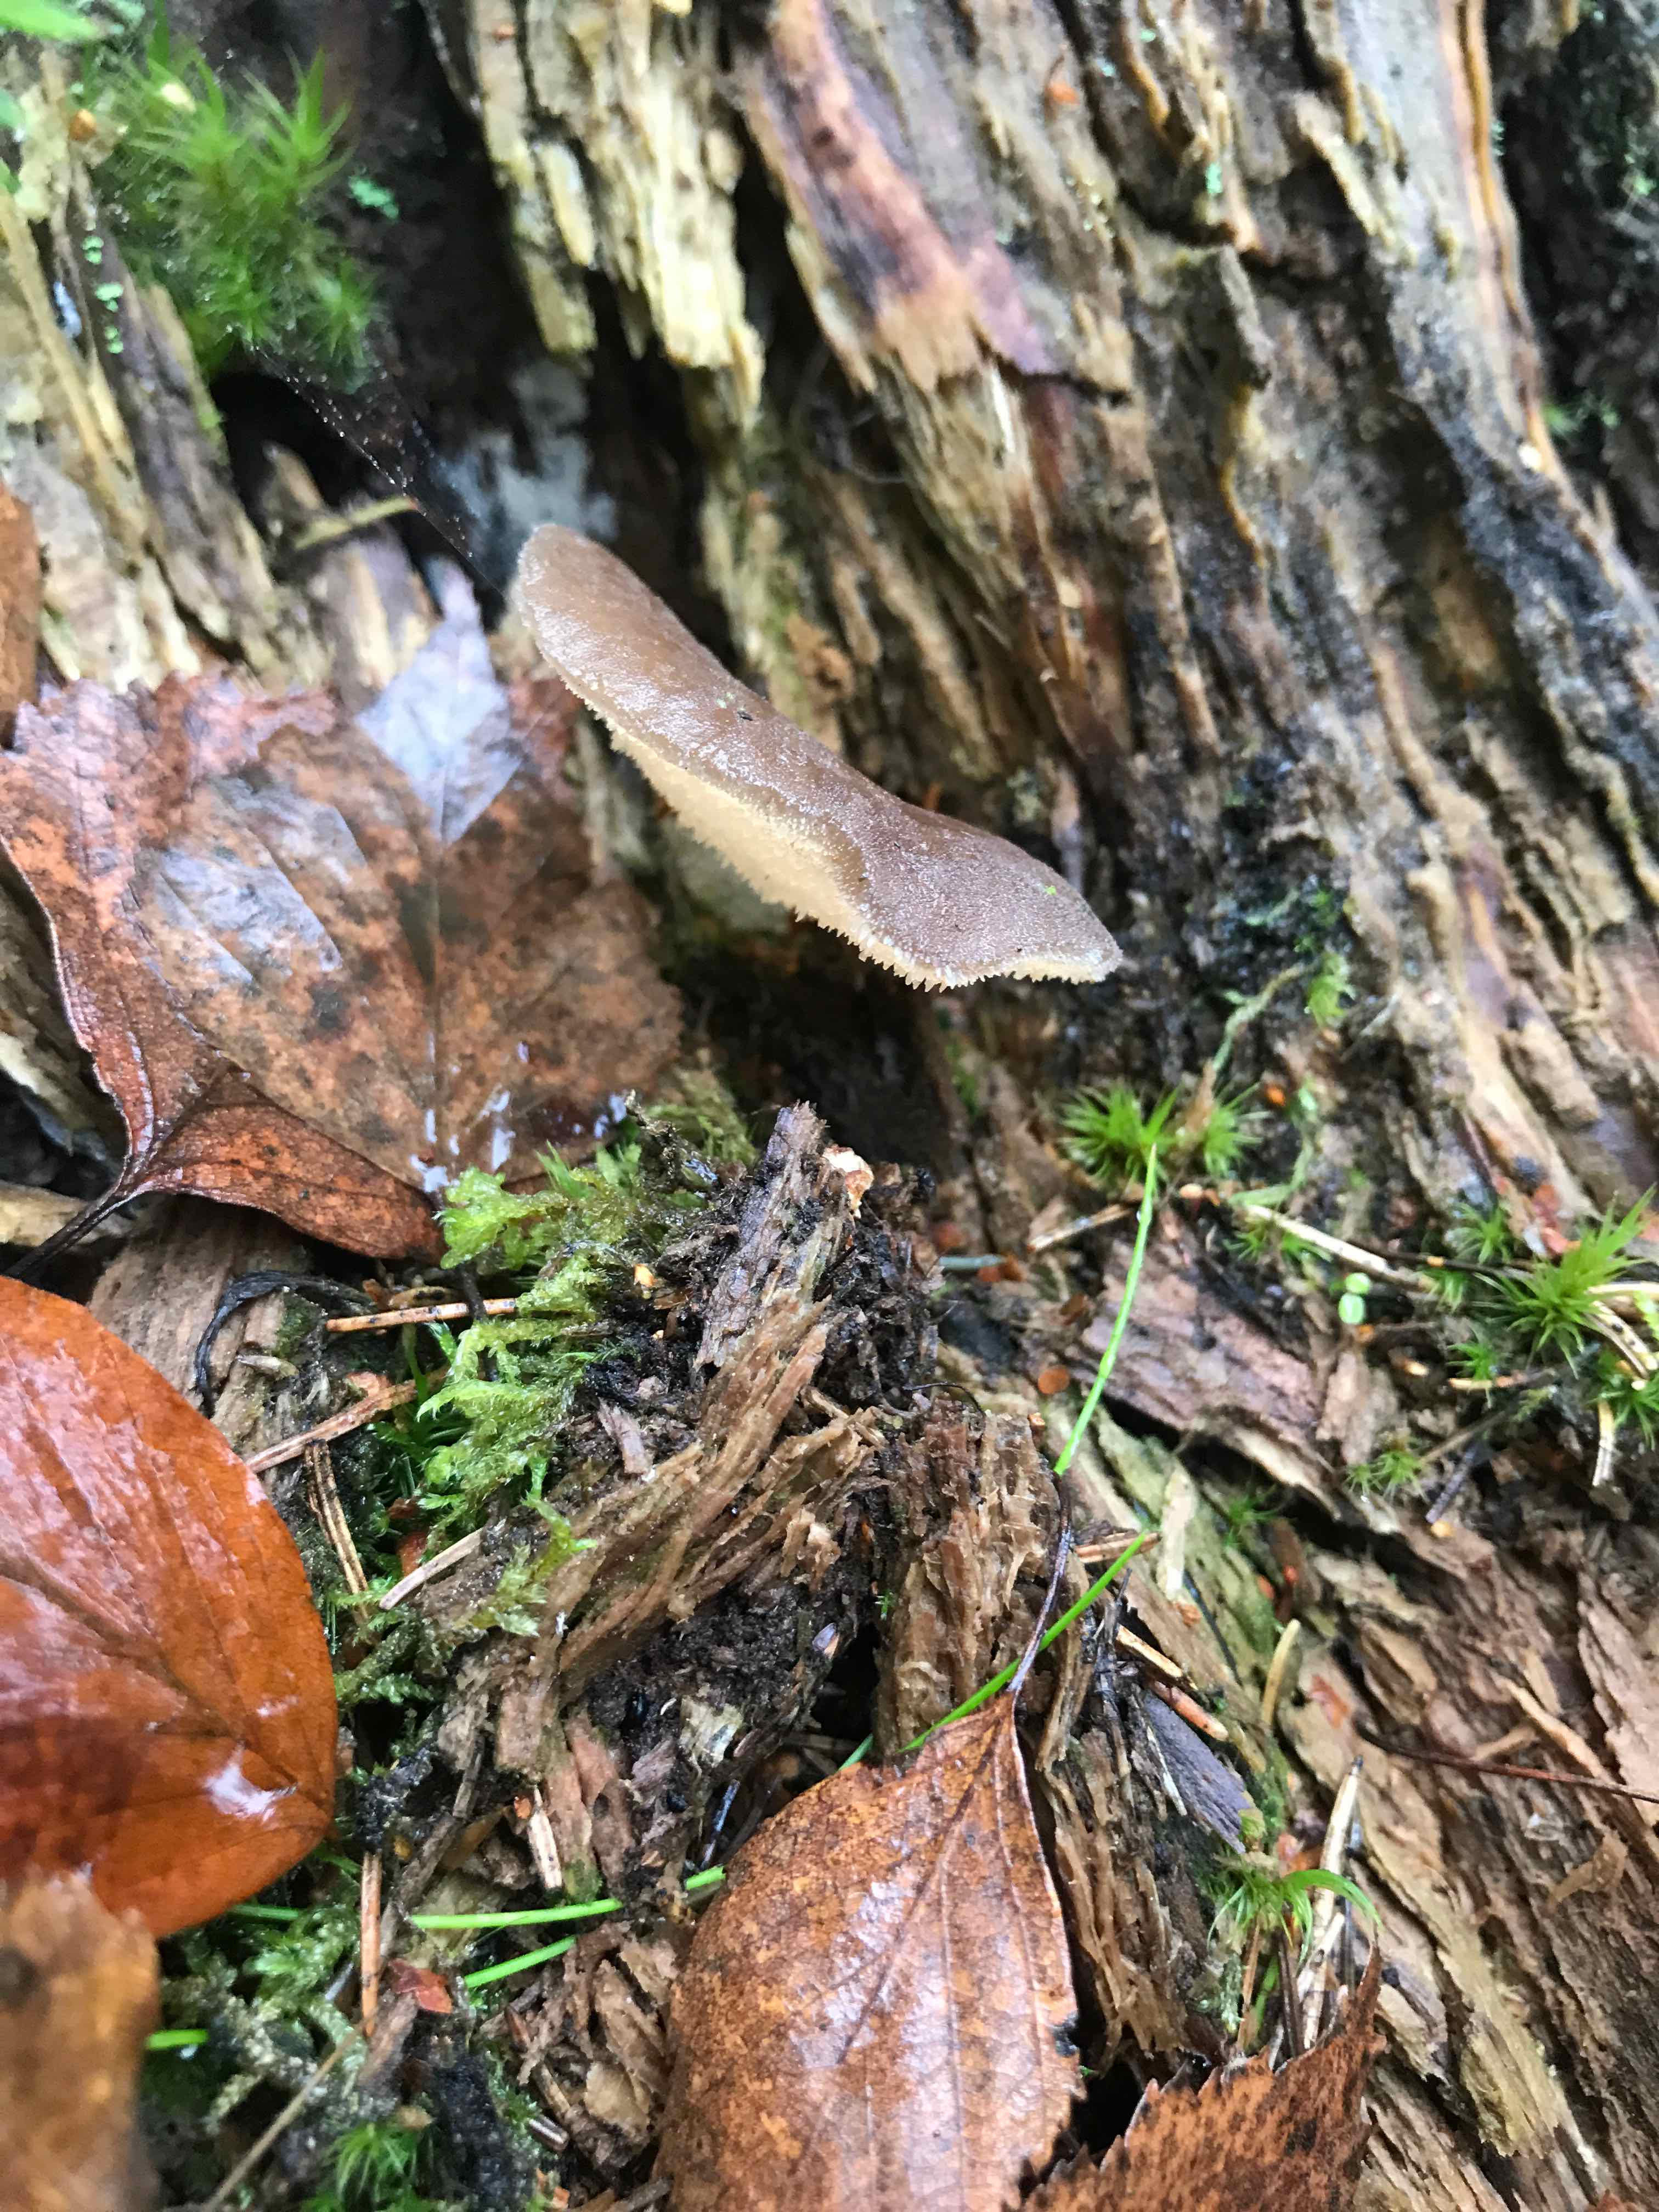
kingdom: Fungi
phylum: Basidiomycota
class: Agaricomycetes
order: Auriculariales
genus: Pseudohydnum
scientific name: Pseudohydnum gelatinosum
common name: bævretand
